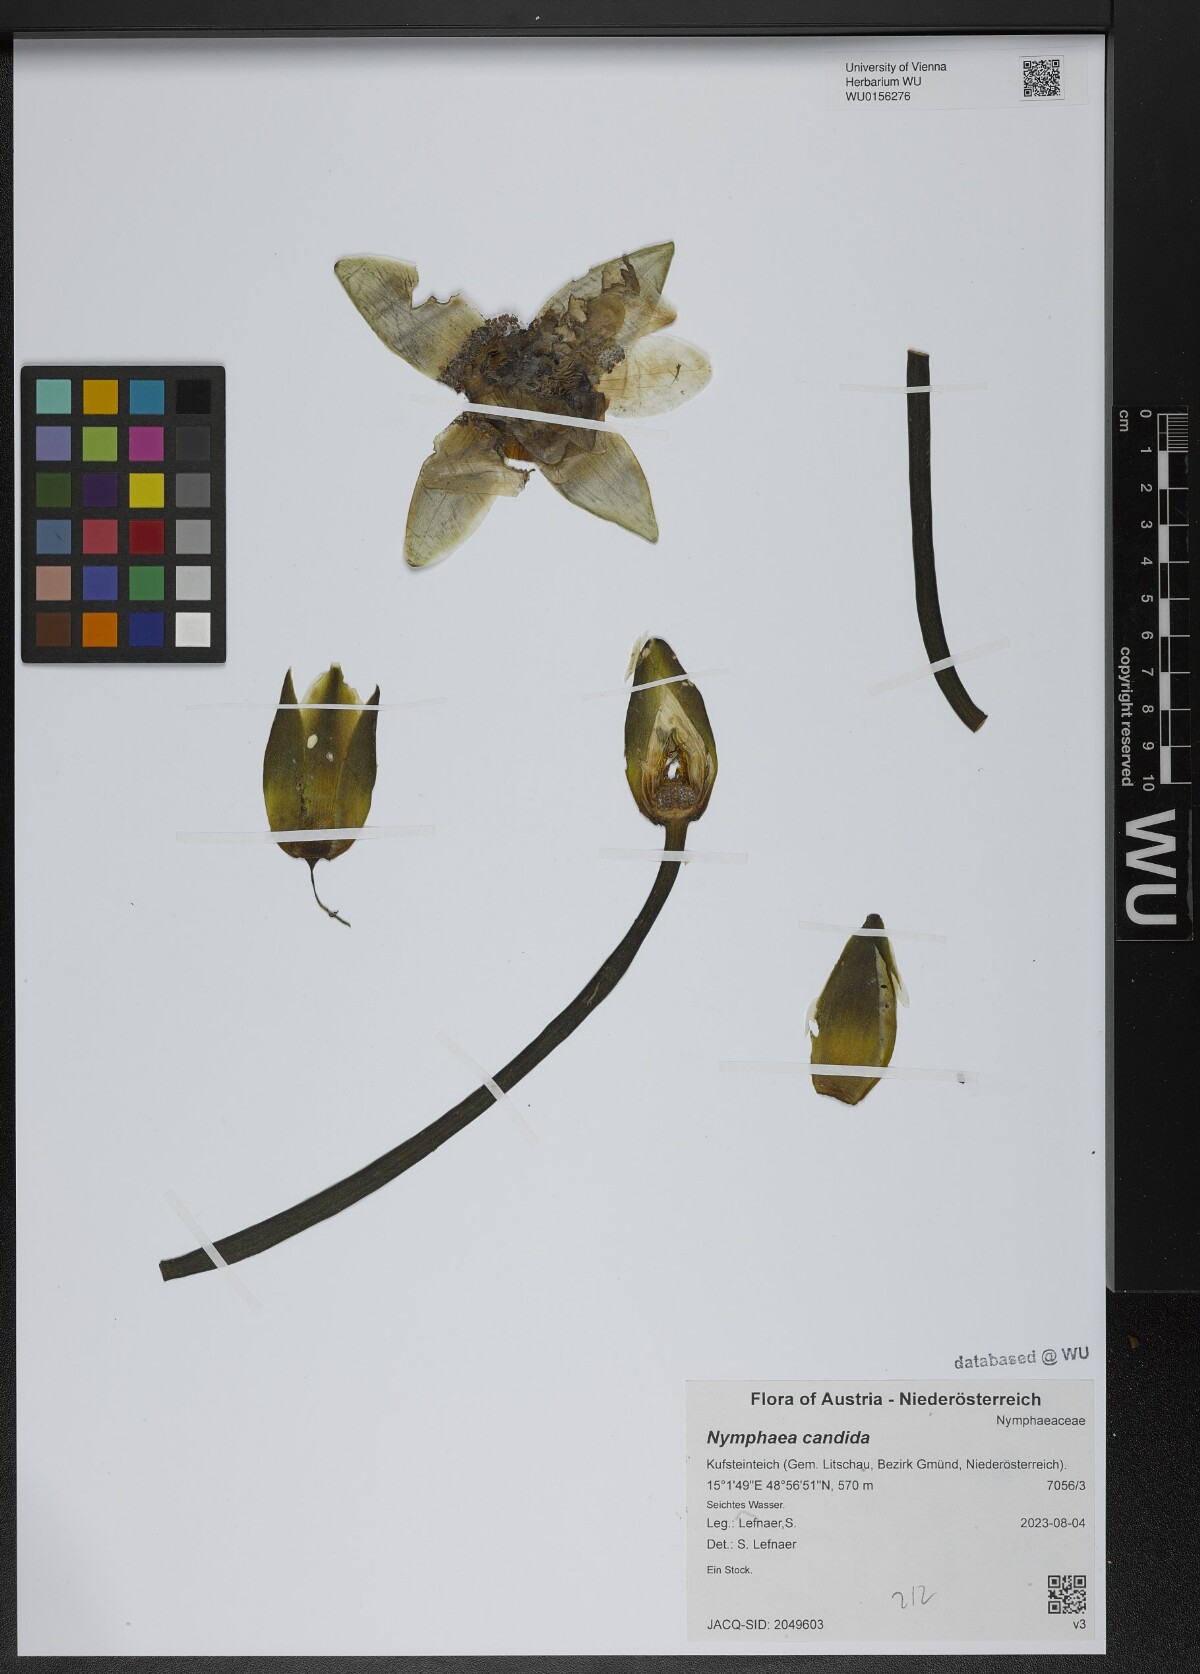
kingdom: Plantae
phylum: Tracheophyta
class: Magnoliopsida
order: Nymphaeales
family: Nymphaeaceae
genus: Nymphaea
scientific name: Nymphaea candida
